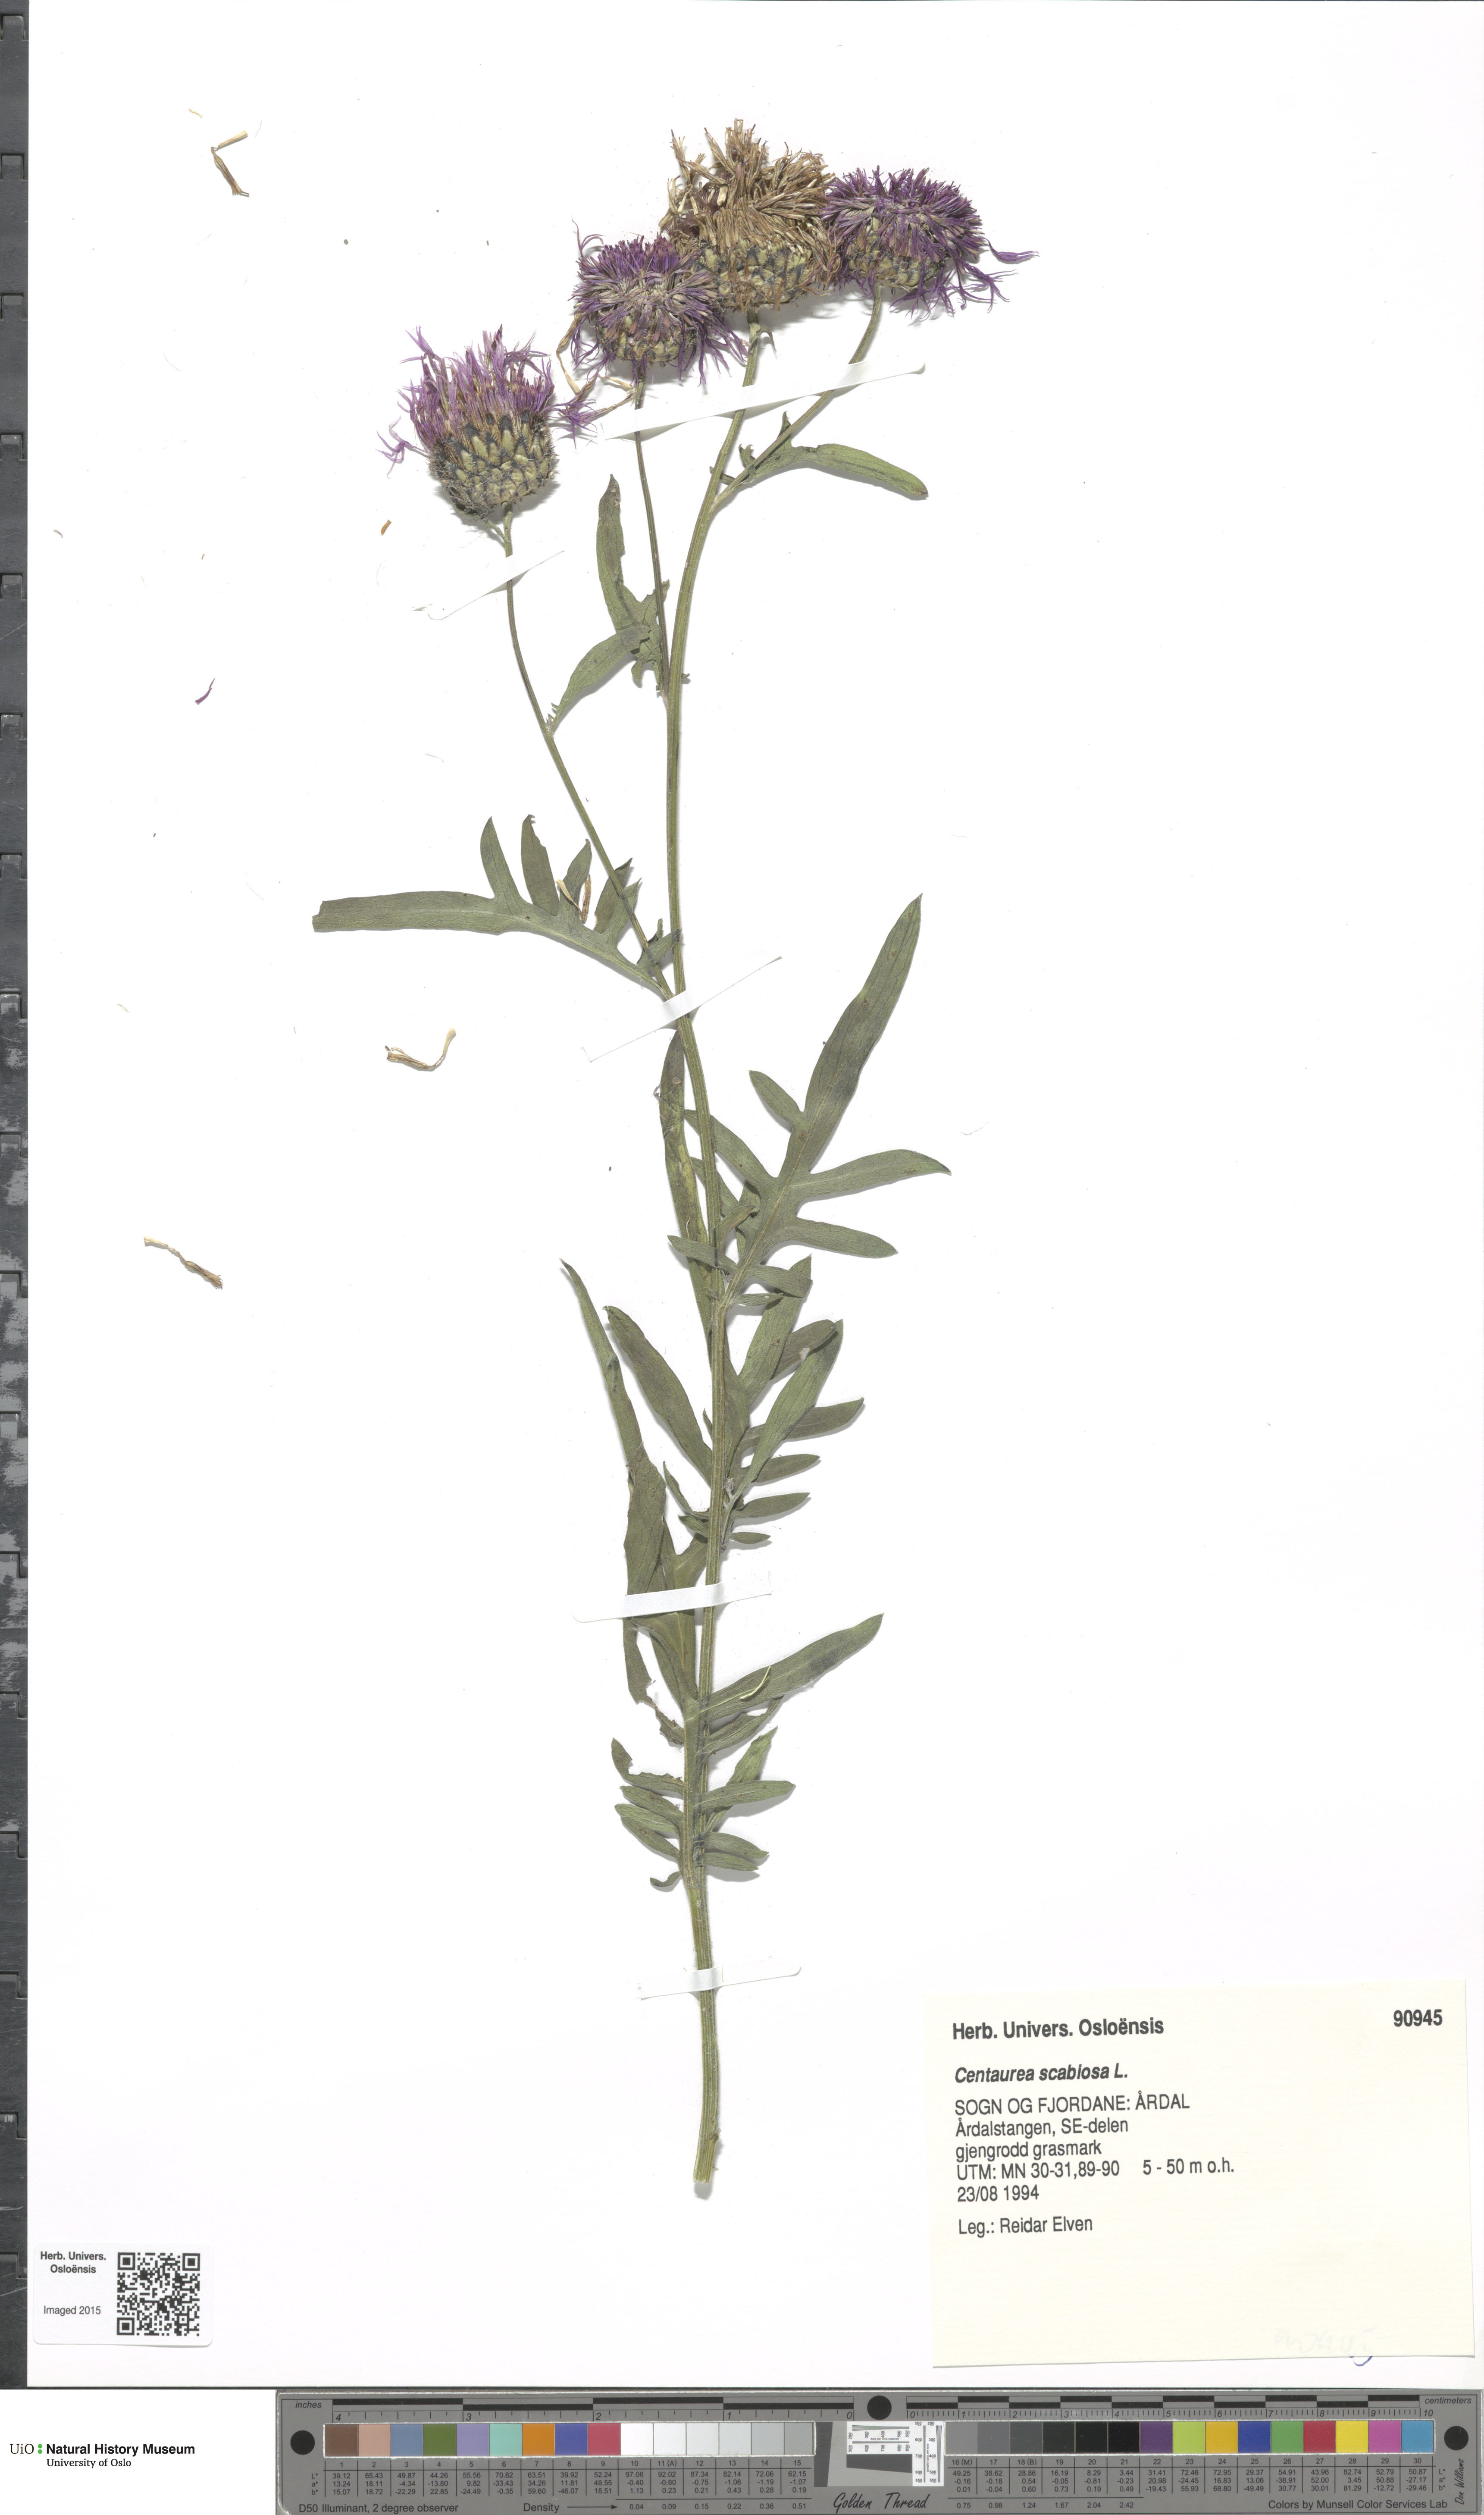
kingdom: Plantae
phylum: Tracheophyta
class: Magnoliopsida
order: Asterales
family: Asteraceae
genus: Centaurea
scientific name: Centaurea scabiosa
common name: Greater knapweed
